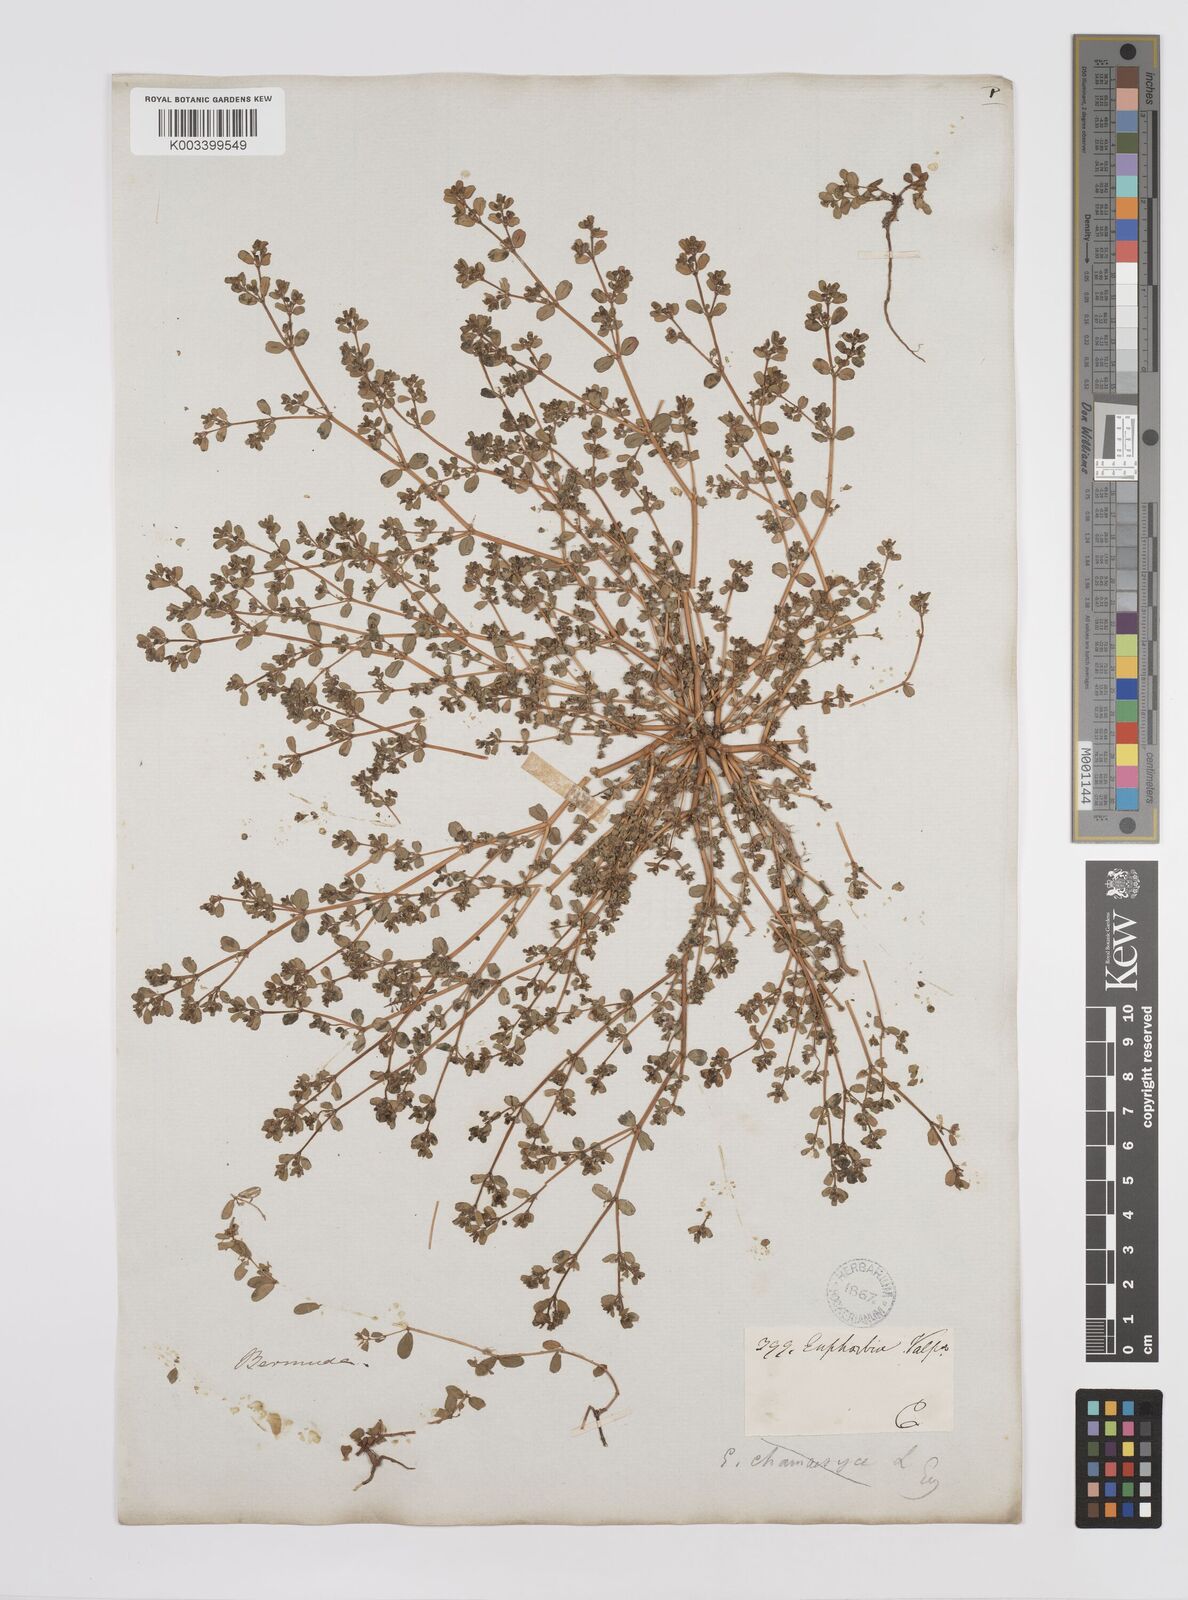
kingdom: Plantae
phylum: Tracheophyta
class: Magnoliopsida
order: Malpighiales
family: Euphorbiaceae
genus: Euphorbia
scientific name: Euphorbia
